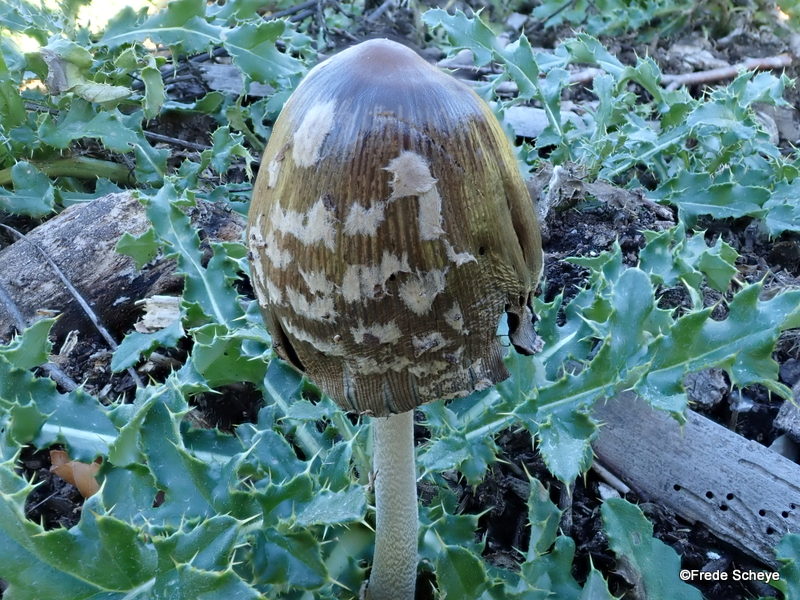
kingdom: Fungi
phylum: Basidiomycota
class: Agaricomycetes
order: Agaricales
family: Psathyrellaceae
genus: Coprinopsis
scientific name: Coprinopsis picacea
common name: skade-blækhat
